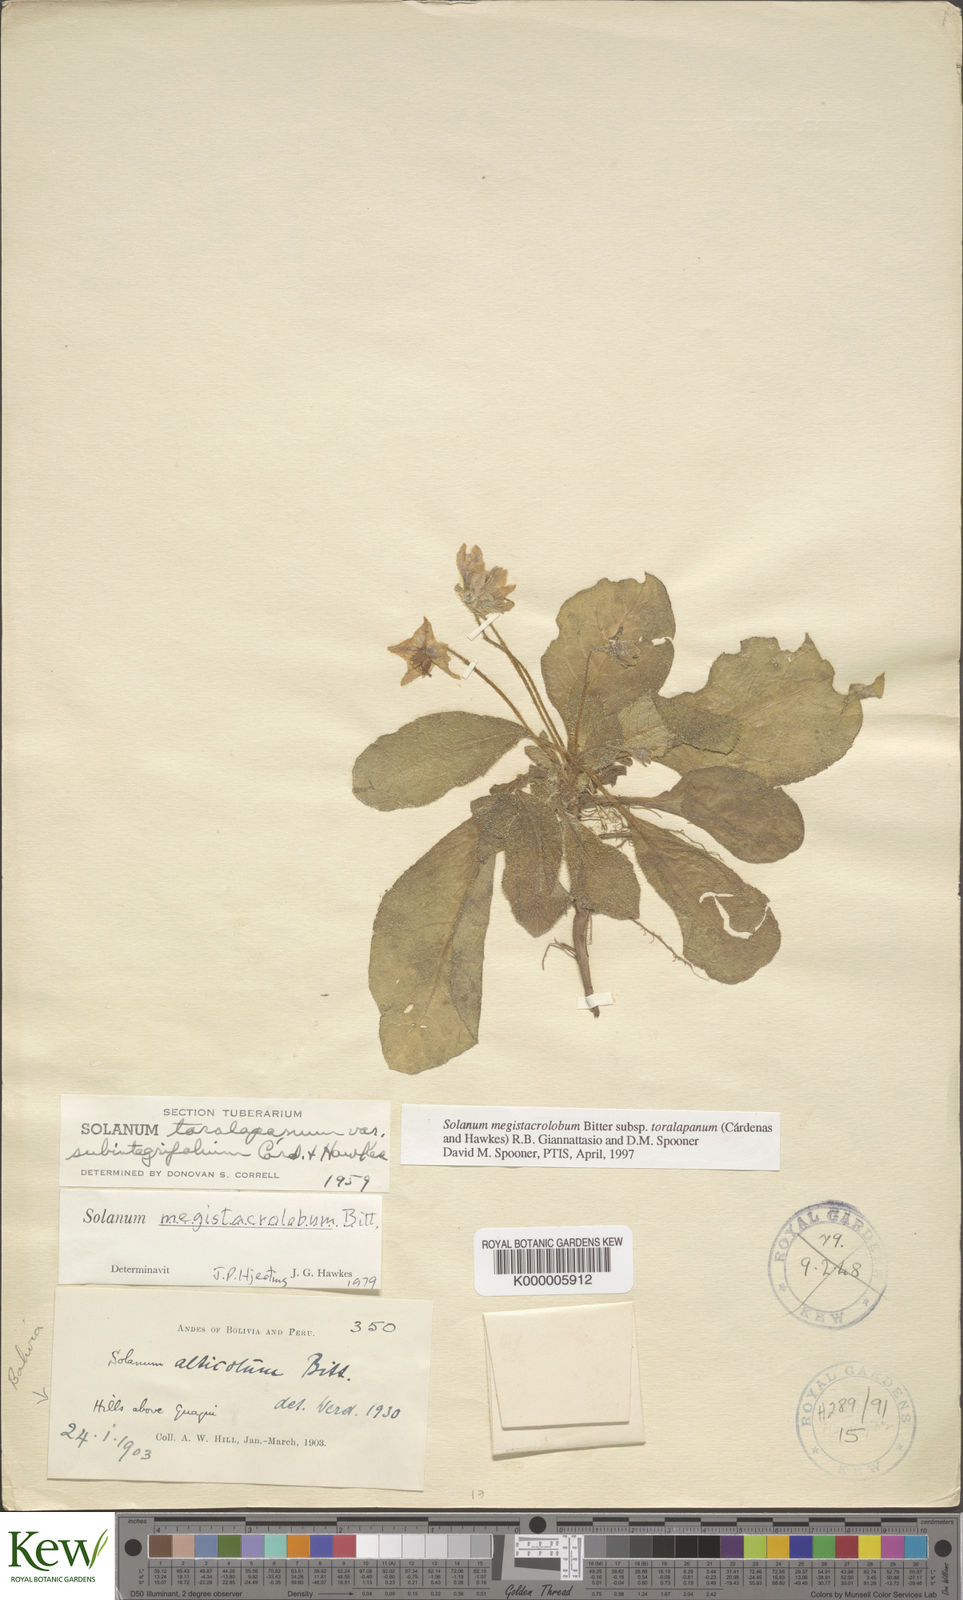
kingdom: Plantae
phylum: Tracheophyta
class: Magnoliopsida
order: Solanales
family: Solanaceae
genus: Solanum
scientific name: Solanum boliviense
